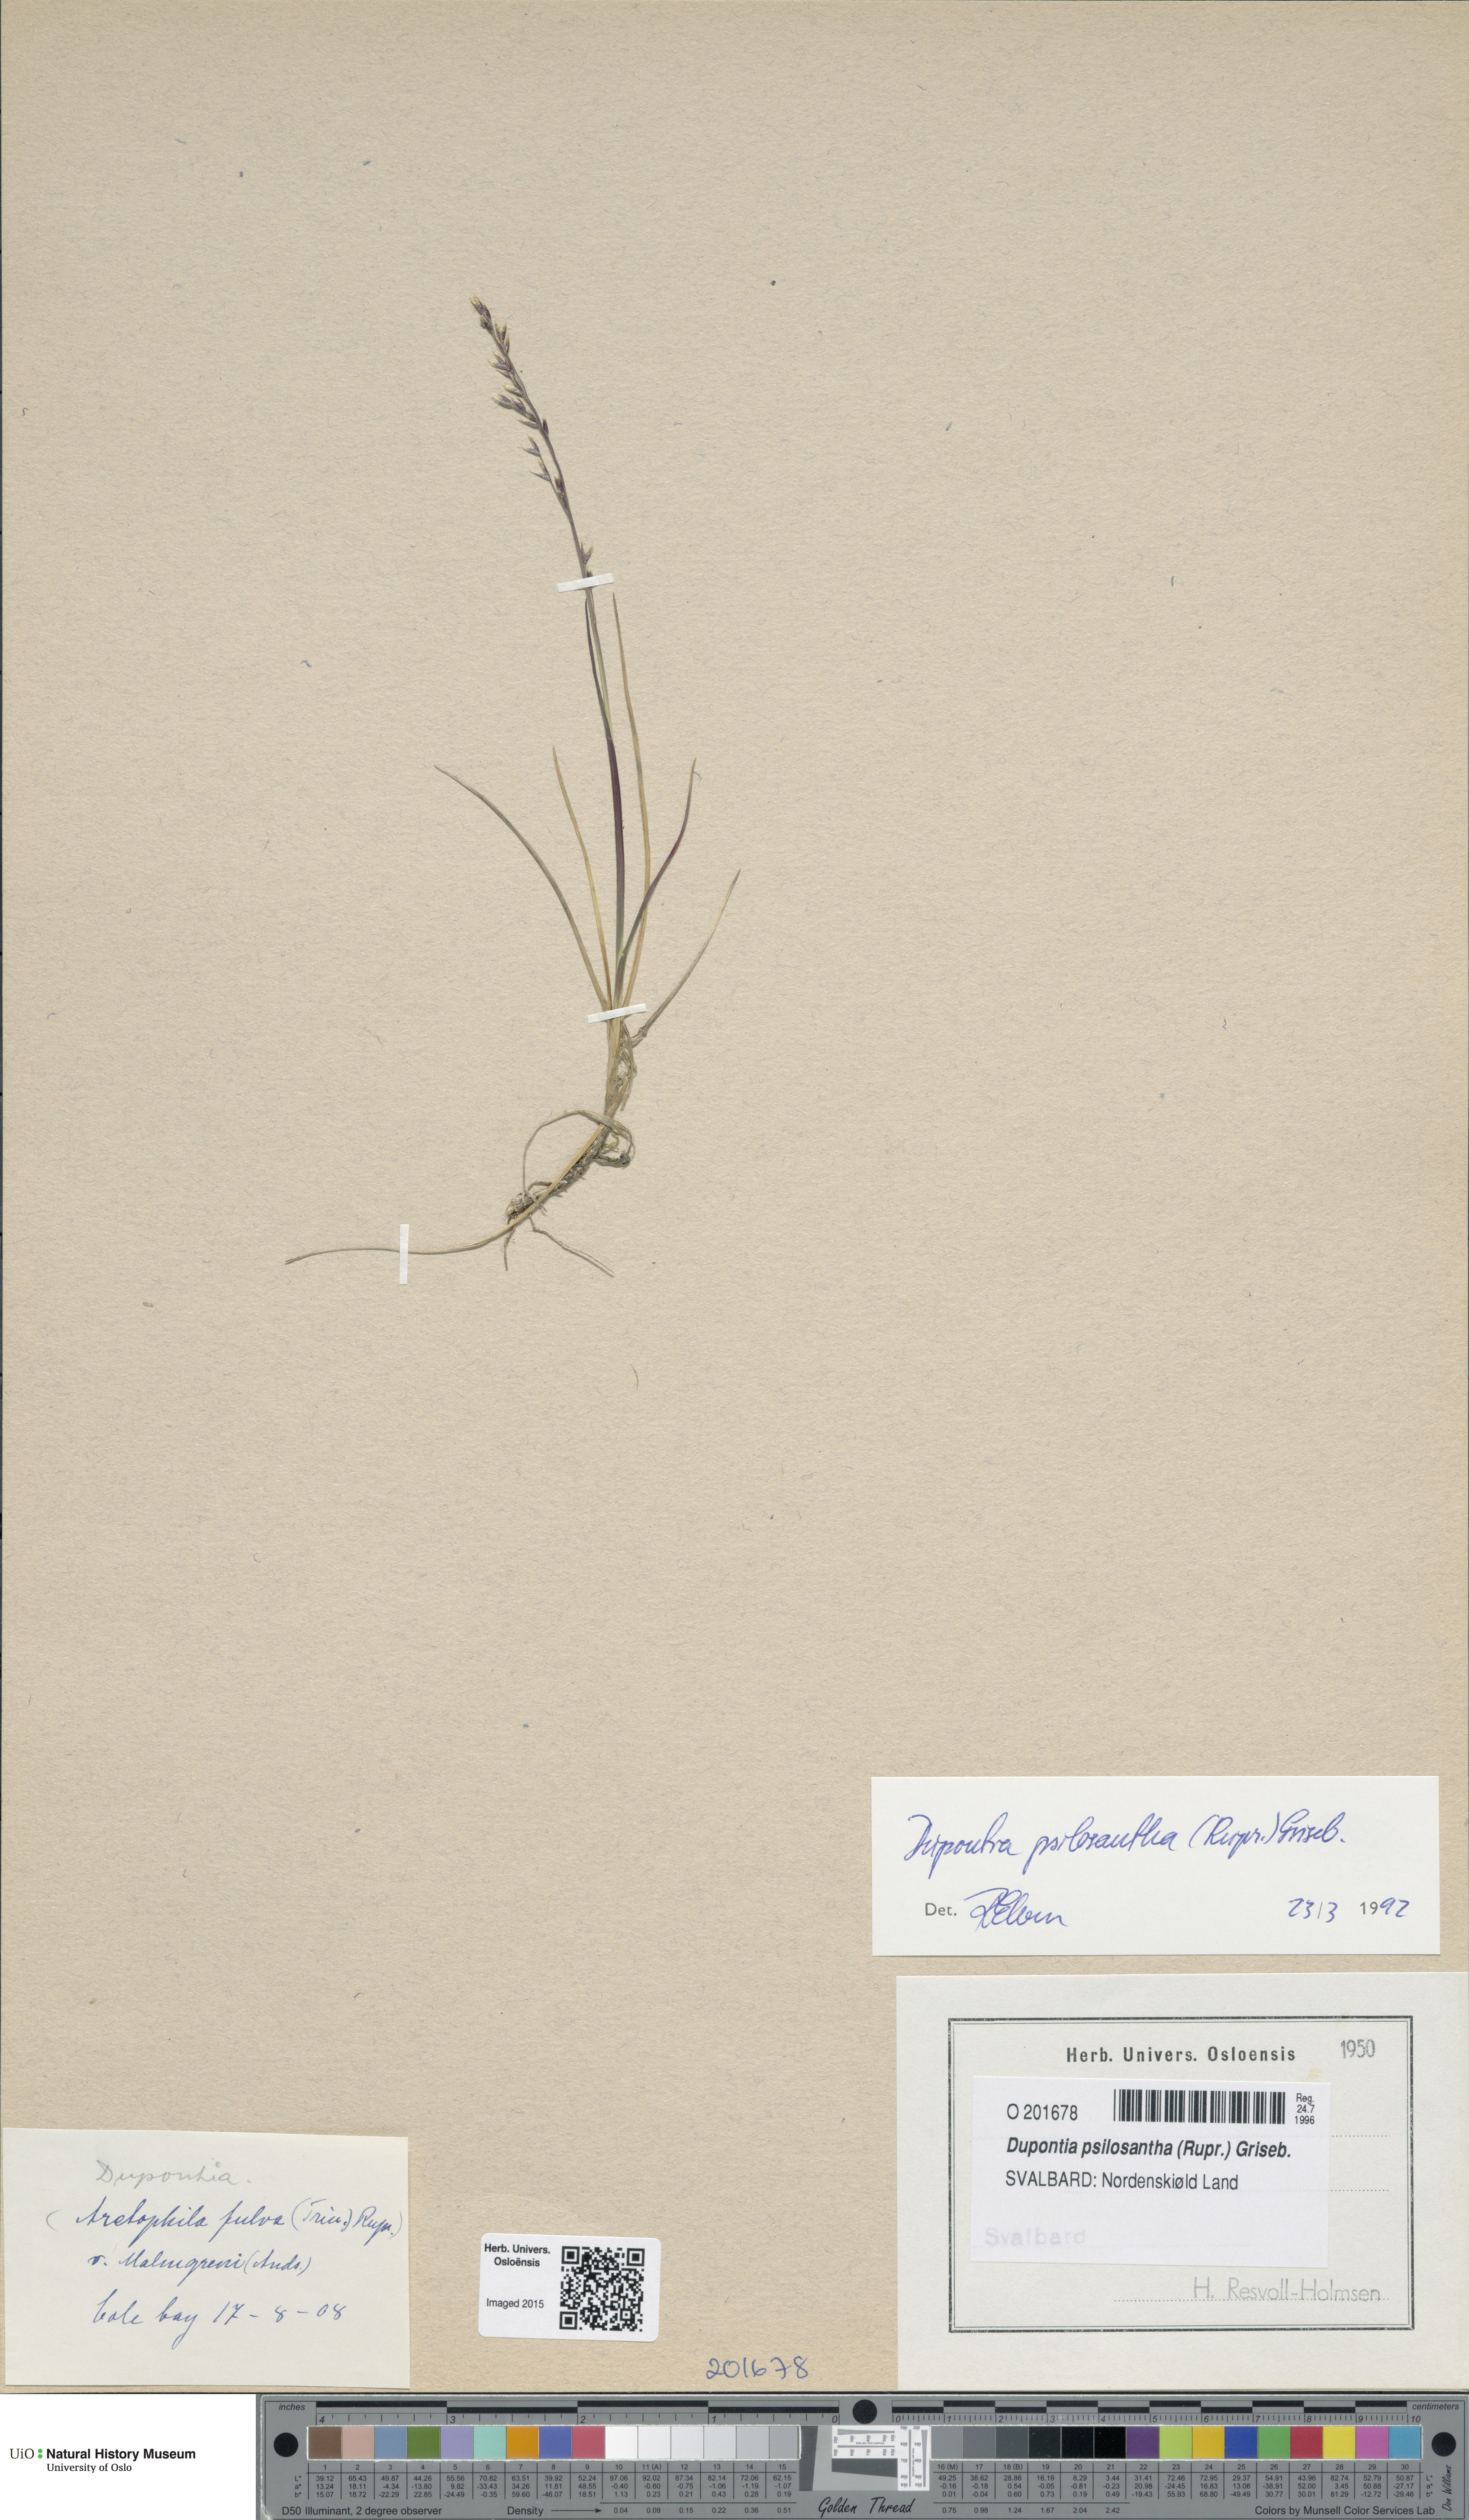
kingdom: Plantae
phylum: Tracheophyta
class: Liliopsida
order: Poales
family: Poaceae
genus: Dupontia
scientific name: Dupontia fisheri
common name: Tundra grass
